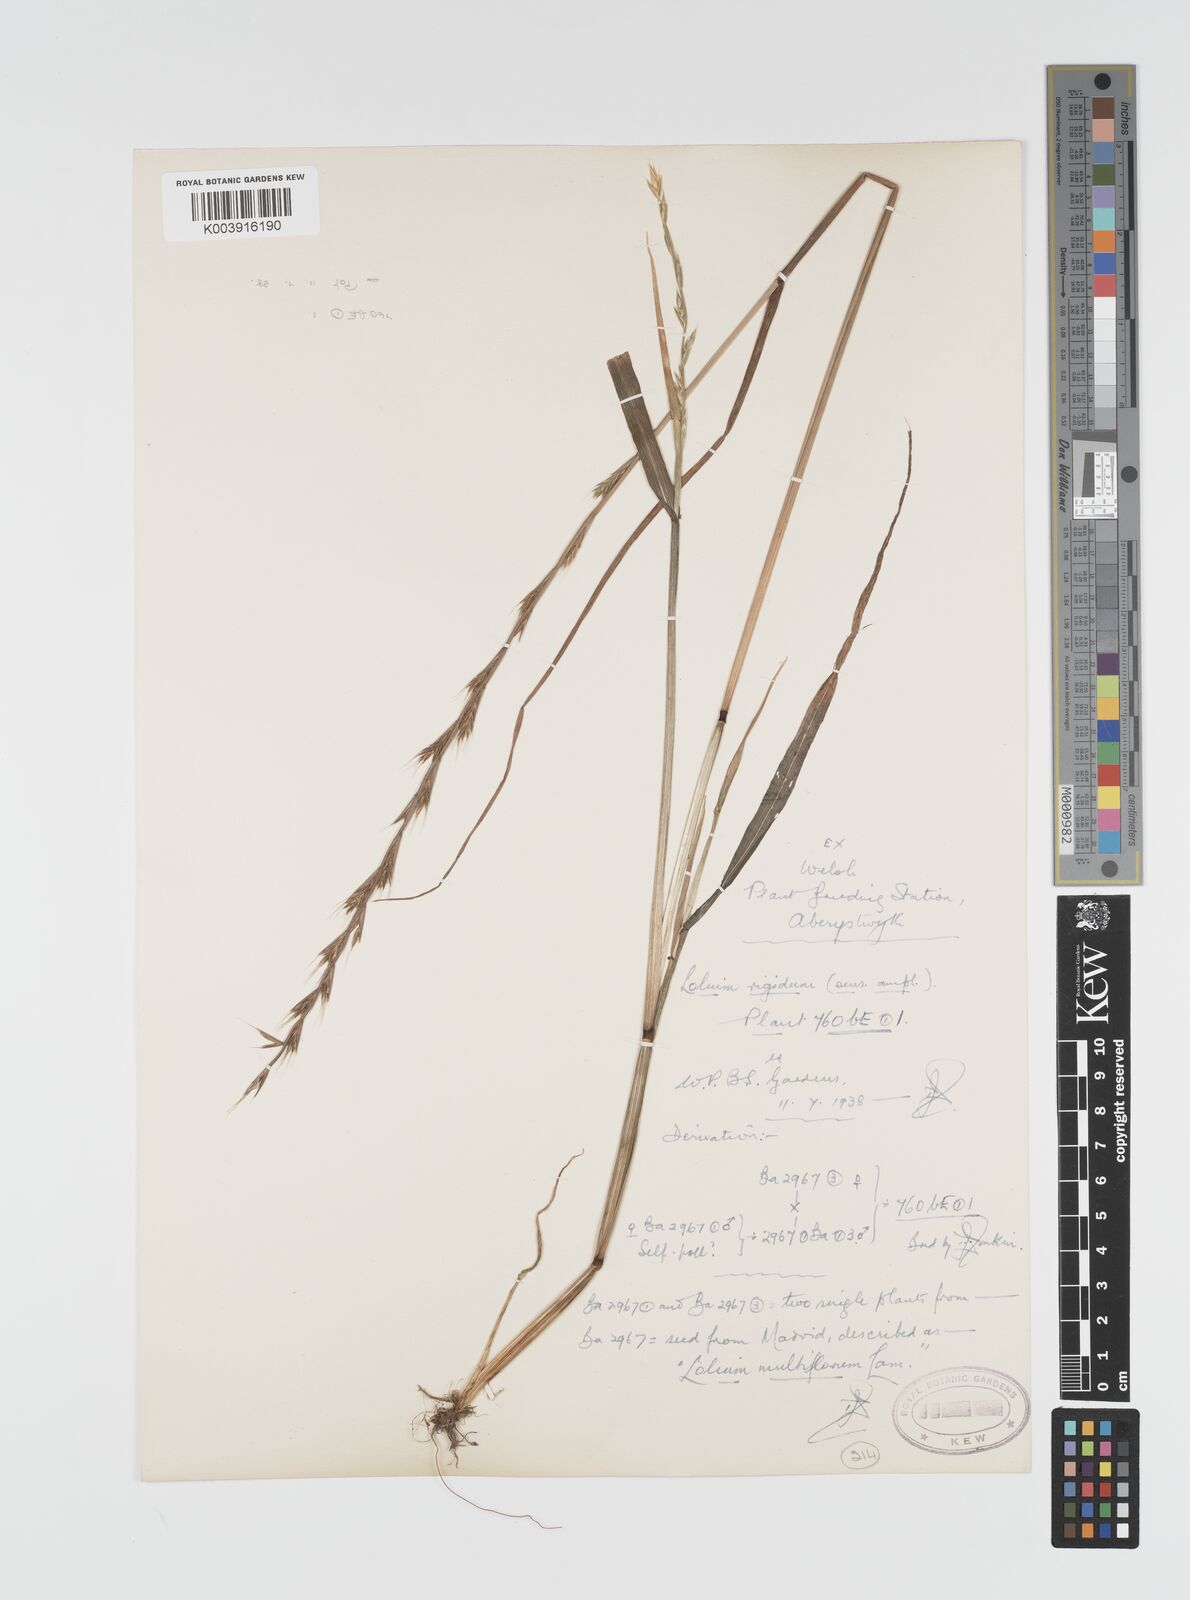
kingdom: Plantae
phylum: Tracheophyta
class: Liliopsida
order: Poales
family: Poaceae
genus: Lolium
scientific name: Lolium rigidum
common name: Wimmera ryegrass
